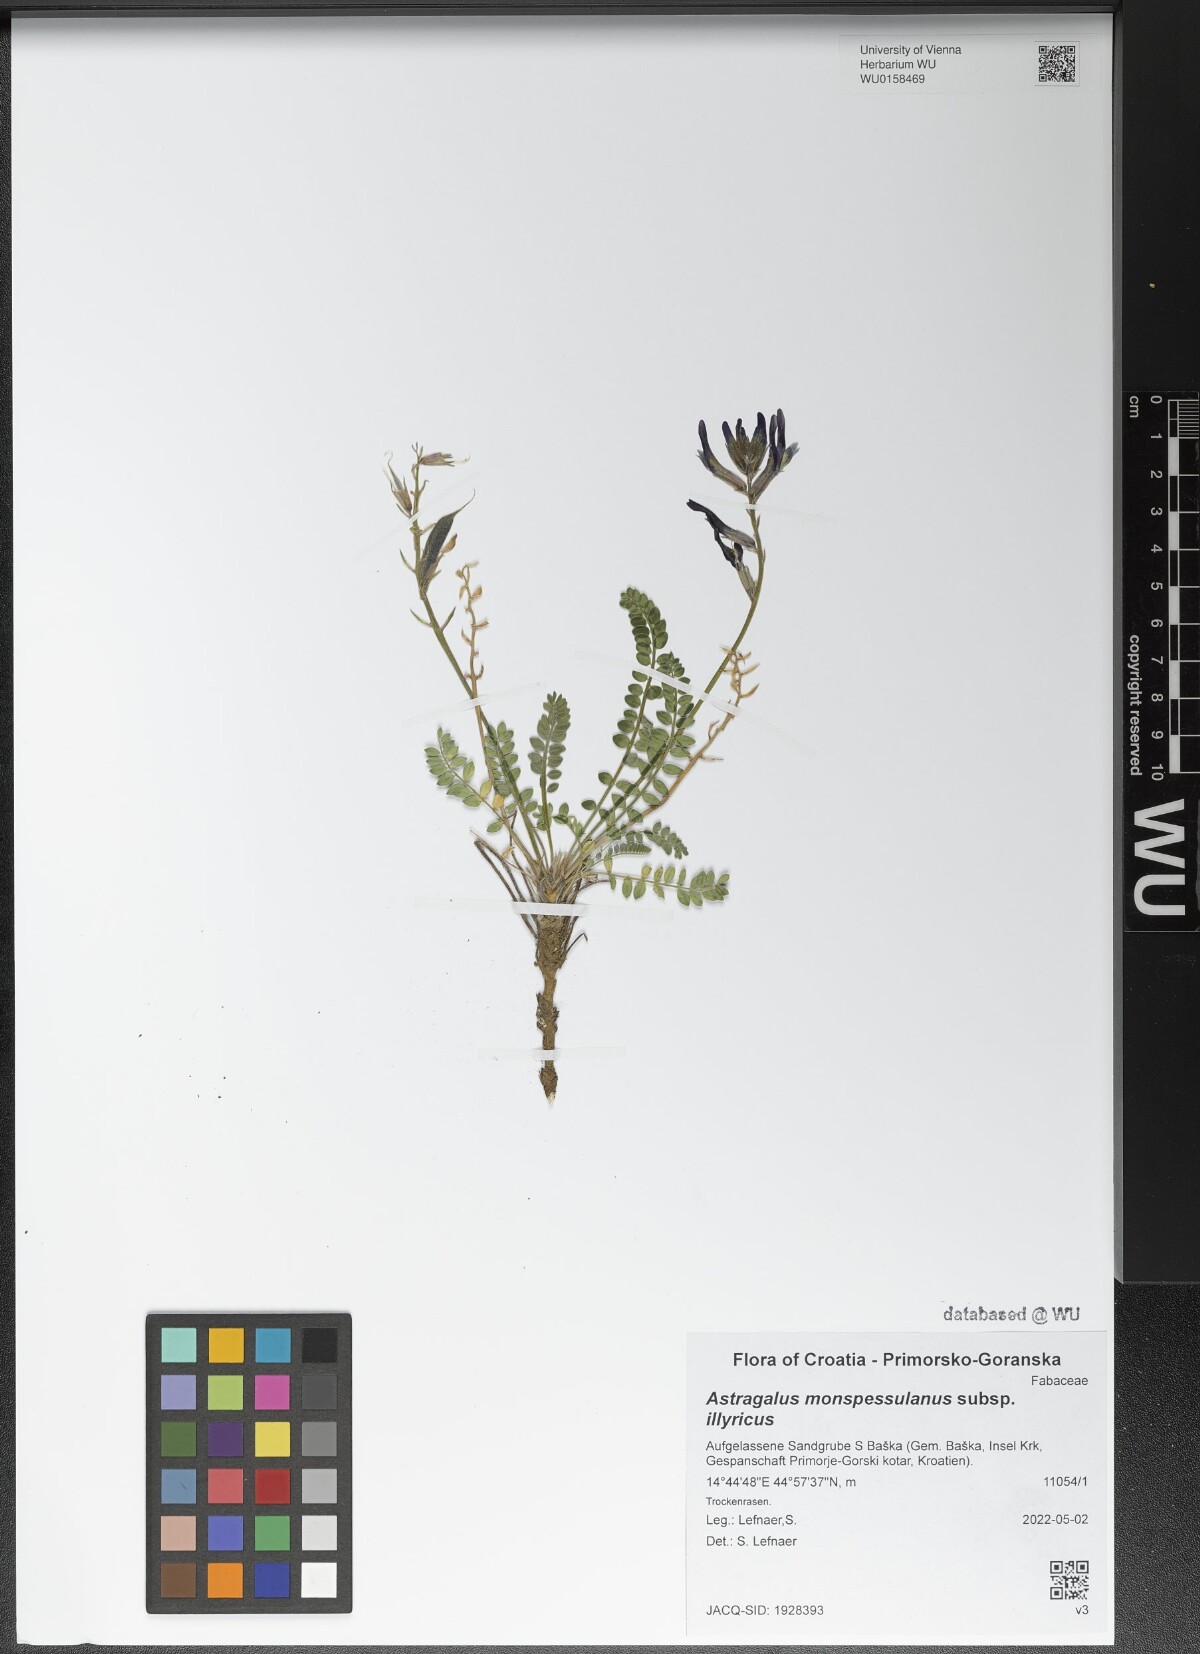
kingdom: Plantae
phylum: Tracheophyta
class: Magnoliopsida
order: Fabales
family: Fabaceae
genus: Astragalus
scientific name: Astragalus monspessulanus
